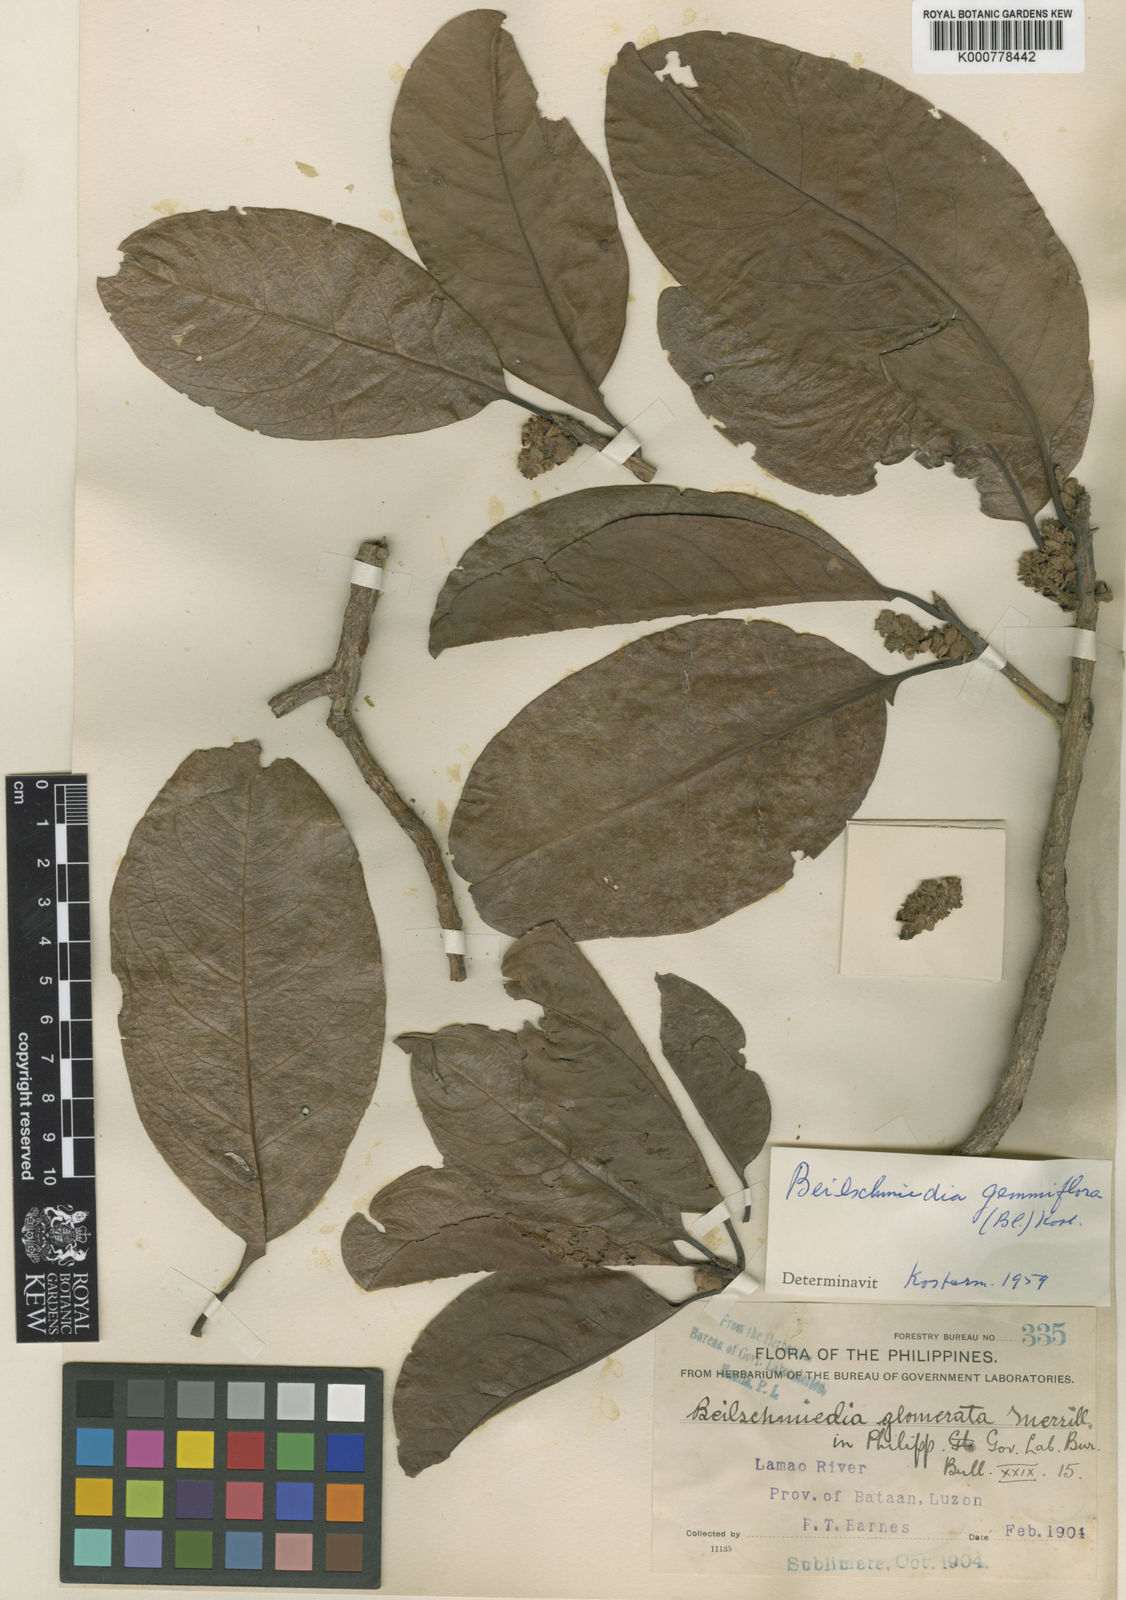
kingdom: Plantae
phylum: Tracheophyta
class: Magnoliopsida
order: Laurales
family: Lauraceae
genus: Beilschmiedia
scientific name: Beilschmiedia gemmiflora
